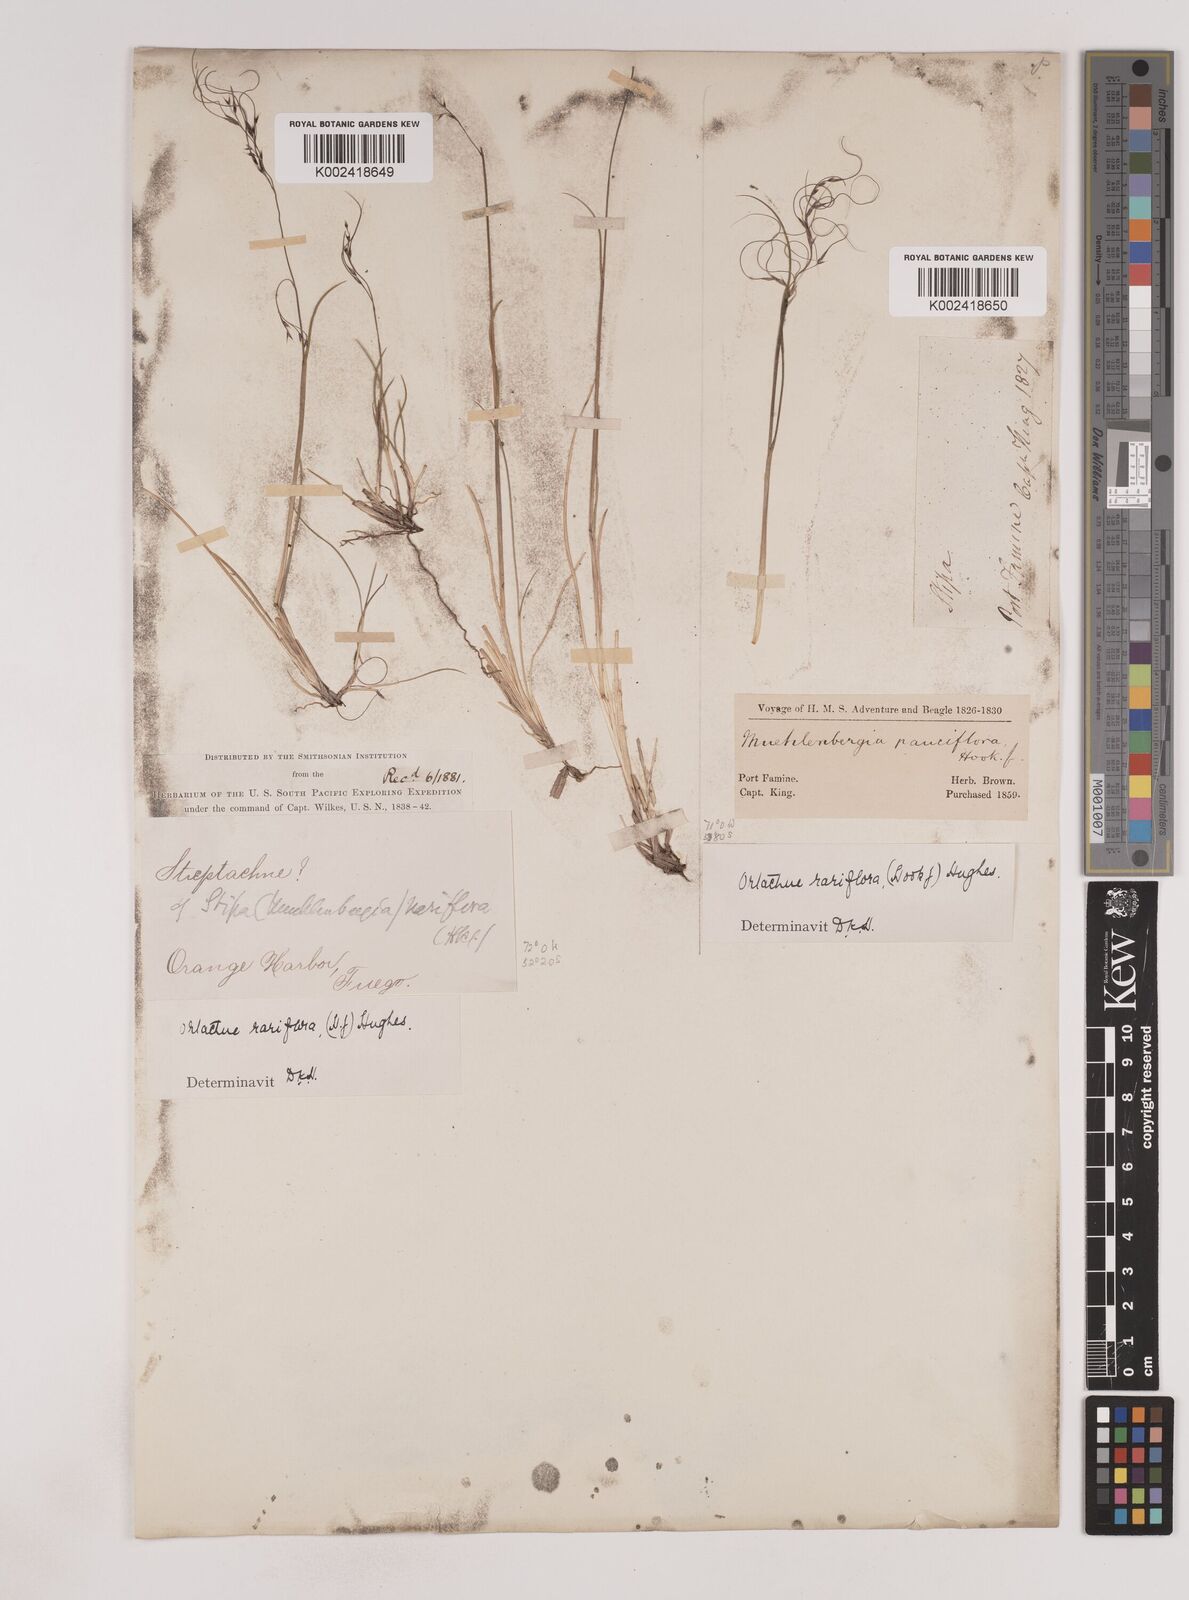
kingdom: Plantae
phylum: Tracheophyta
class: Liliopsida
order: Poales
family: Poaceae
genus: Ortachne
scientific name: Ortachne rariflora
